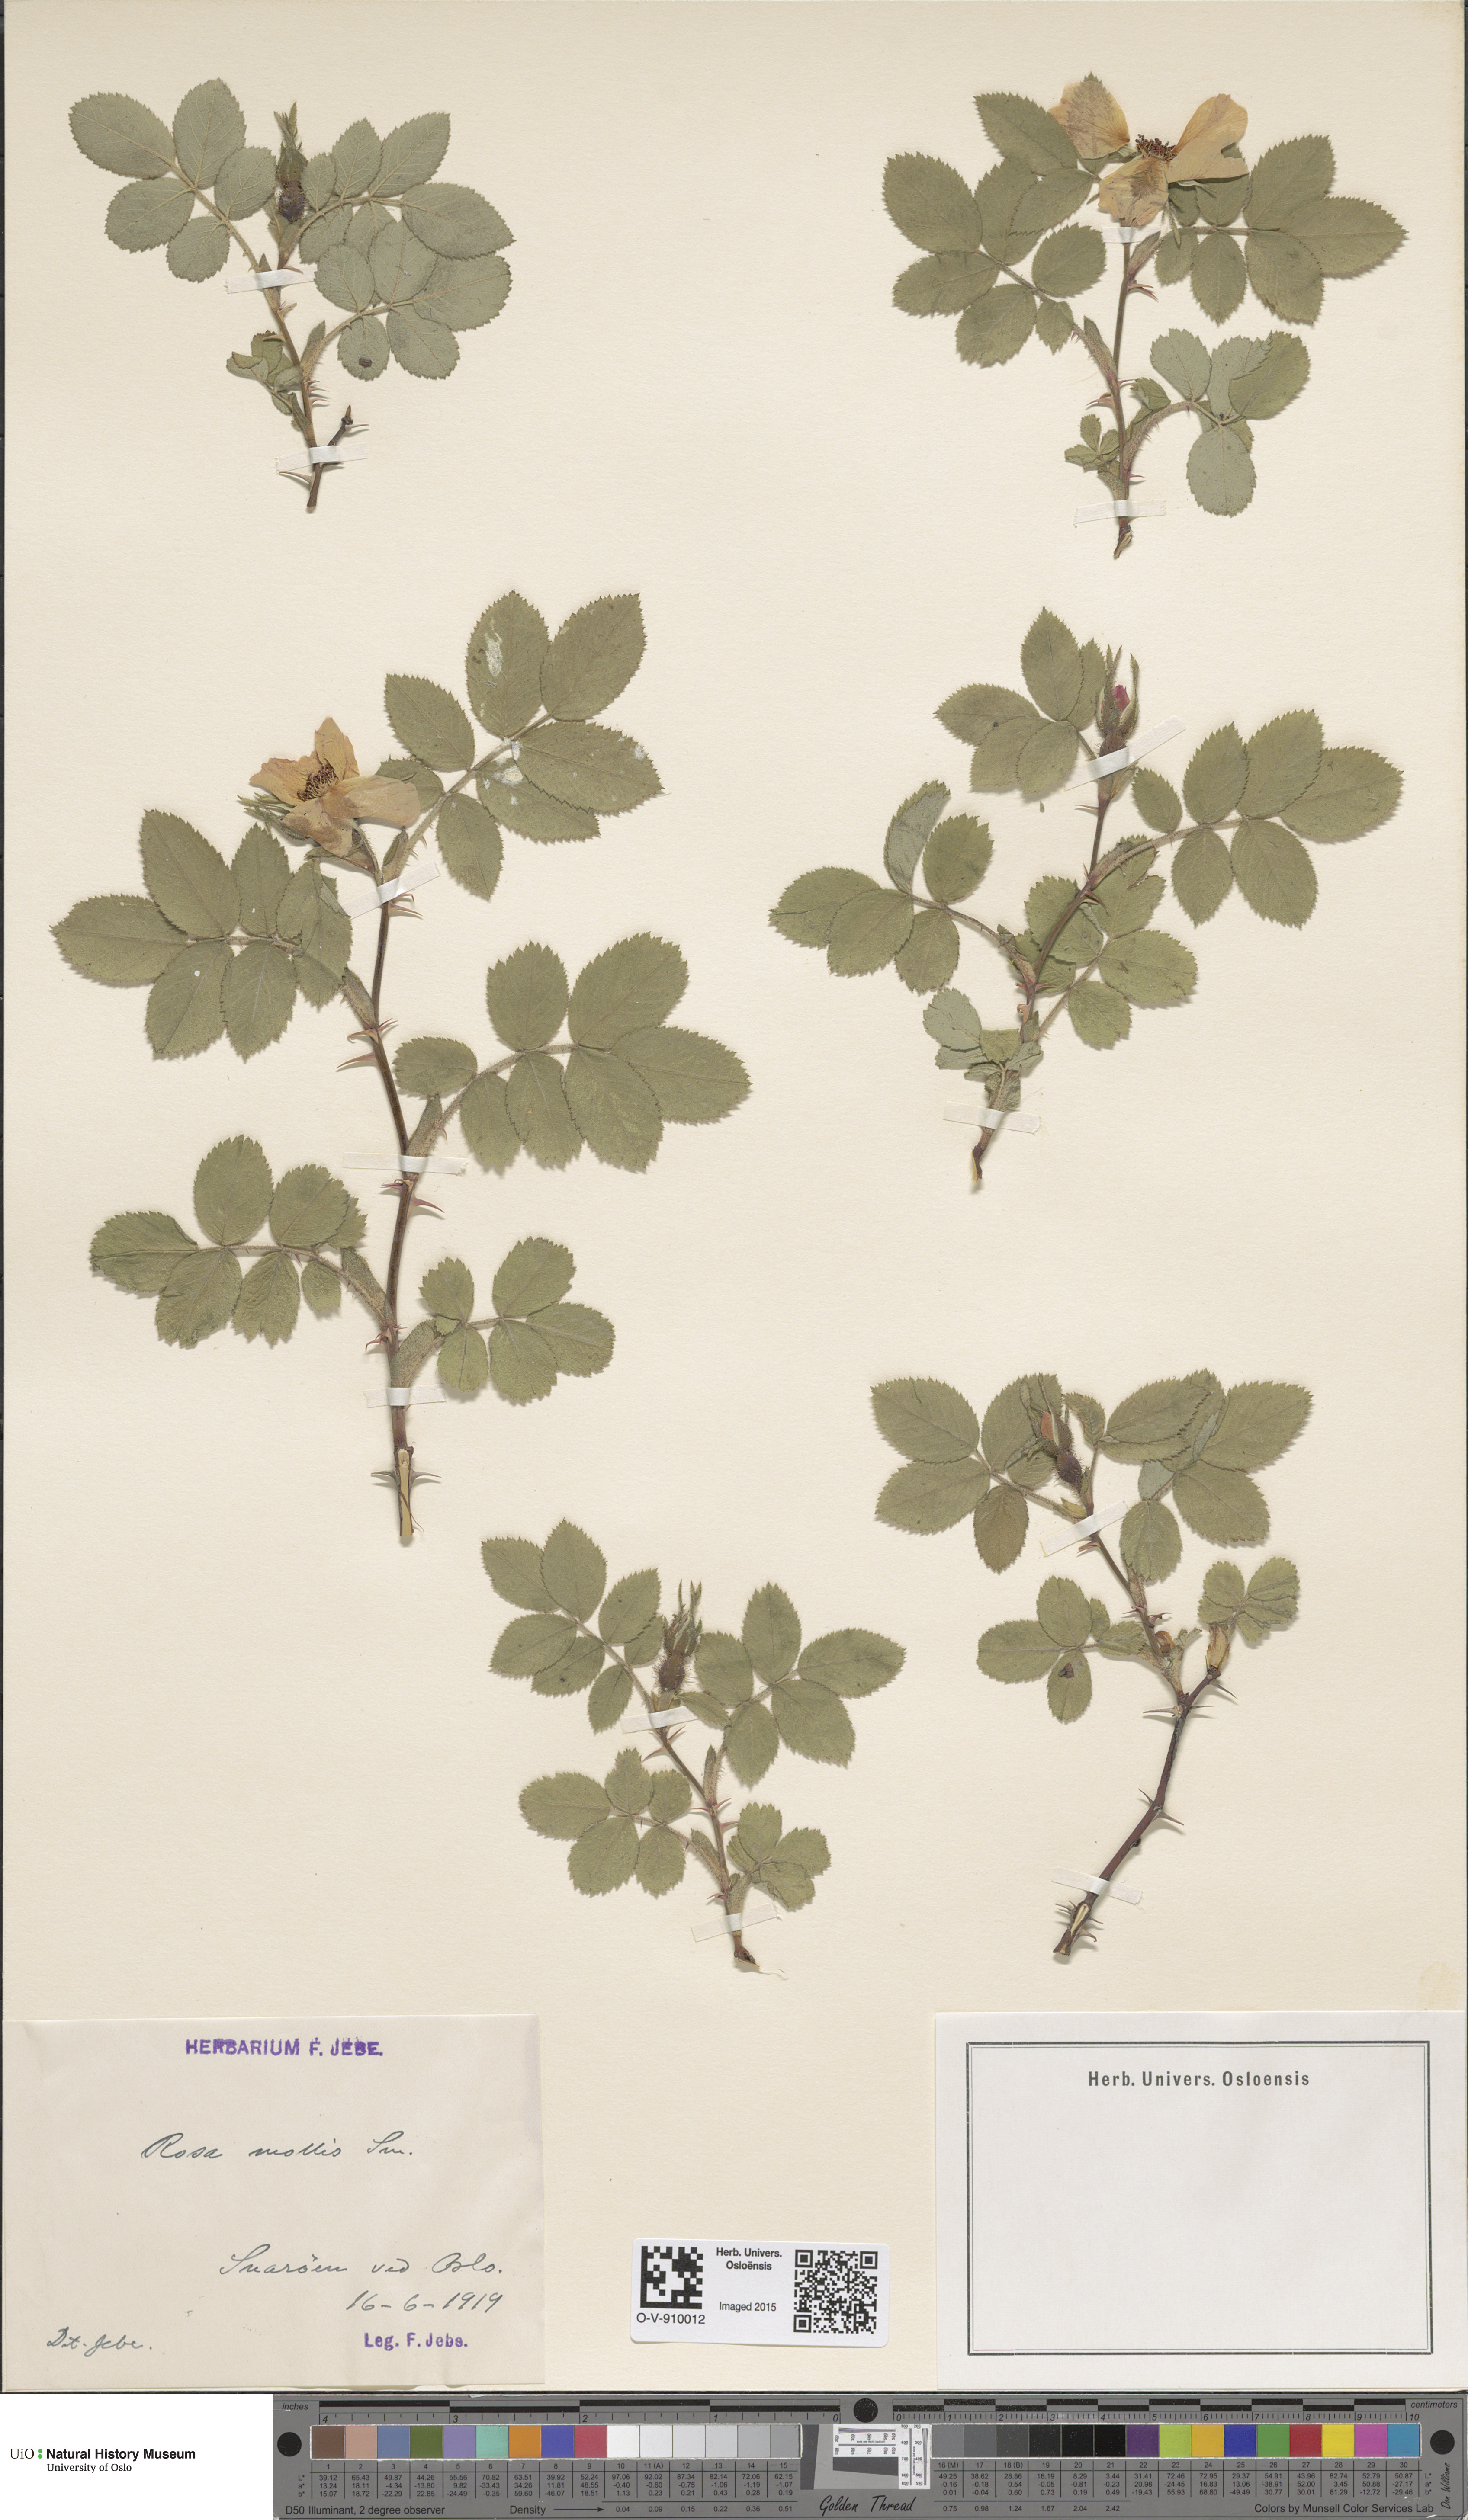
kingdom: Plantae
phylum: Tracheophyta
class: Magnoliopsida
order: Rosales
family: Rosaceae
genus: Rosa
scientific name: Rosa mollis
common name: Rose
